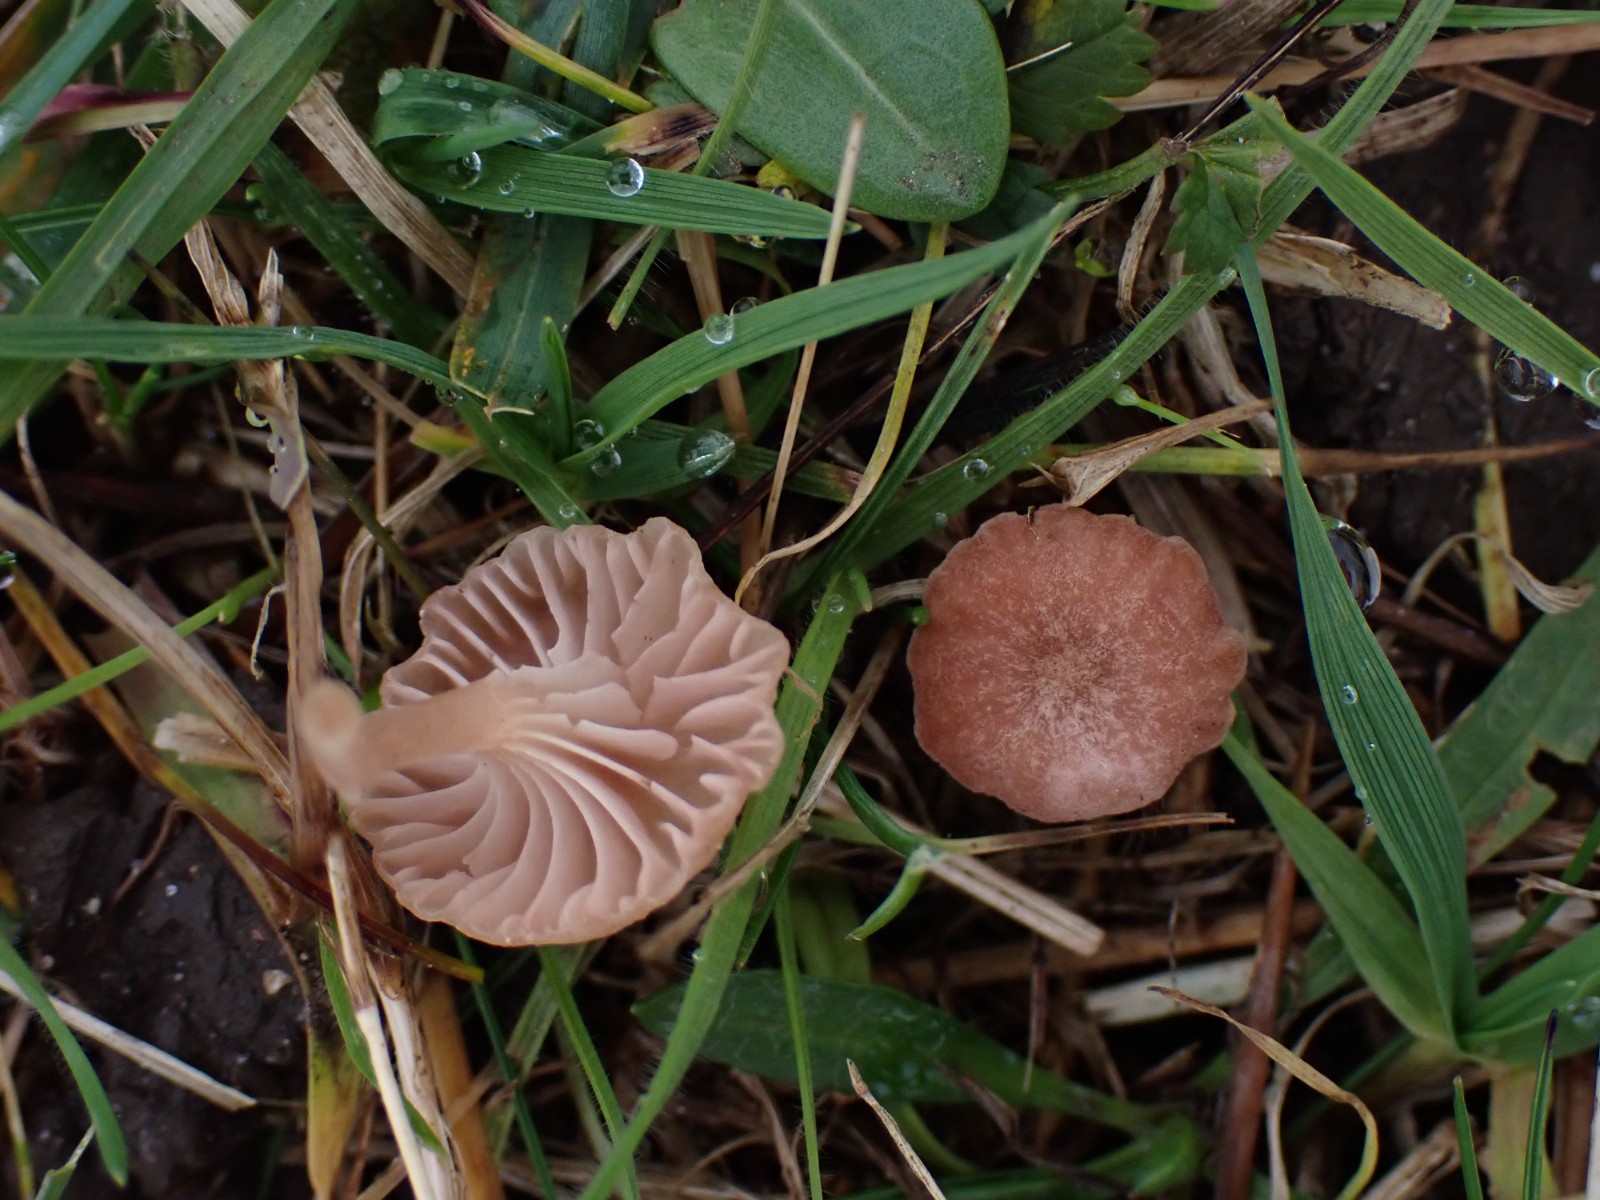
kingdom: Fungi
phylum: Basidiomycota
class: Agaricomycetes
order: Hymenochaetales
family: Rickenellaceae
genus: Contumyces
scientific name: Contumyces rosellus
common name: rosa mosnavlehat
